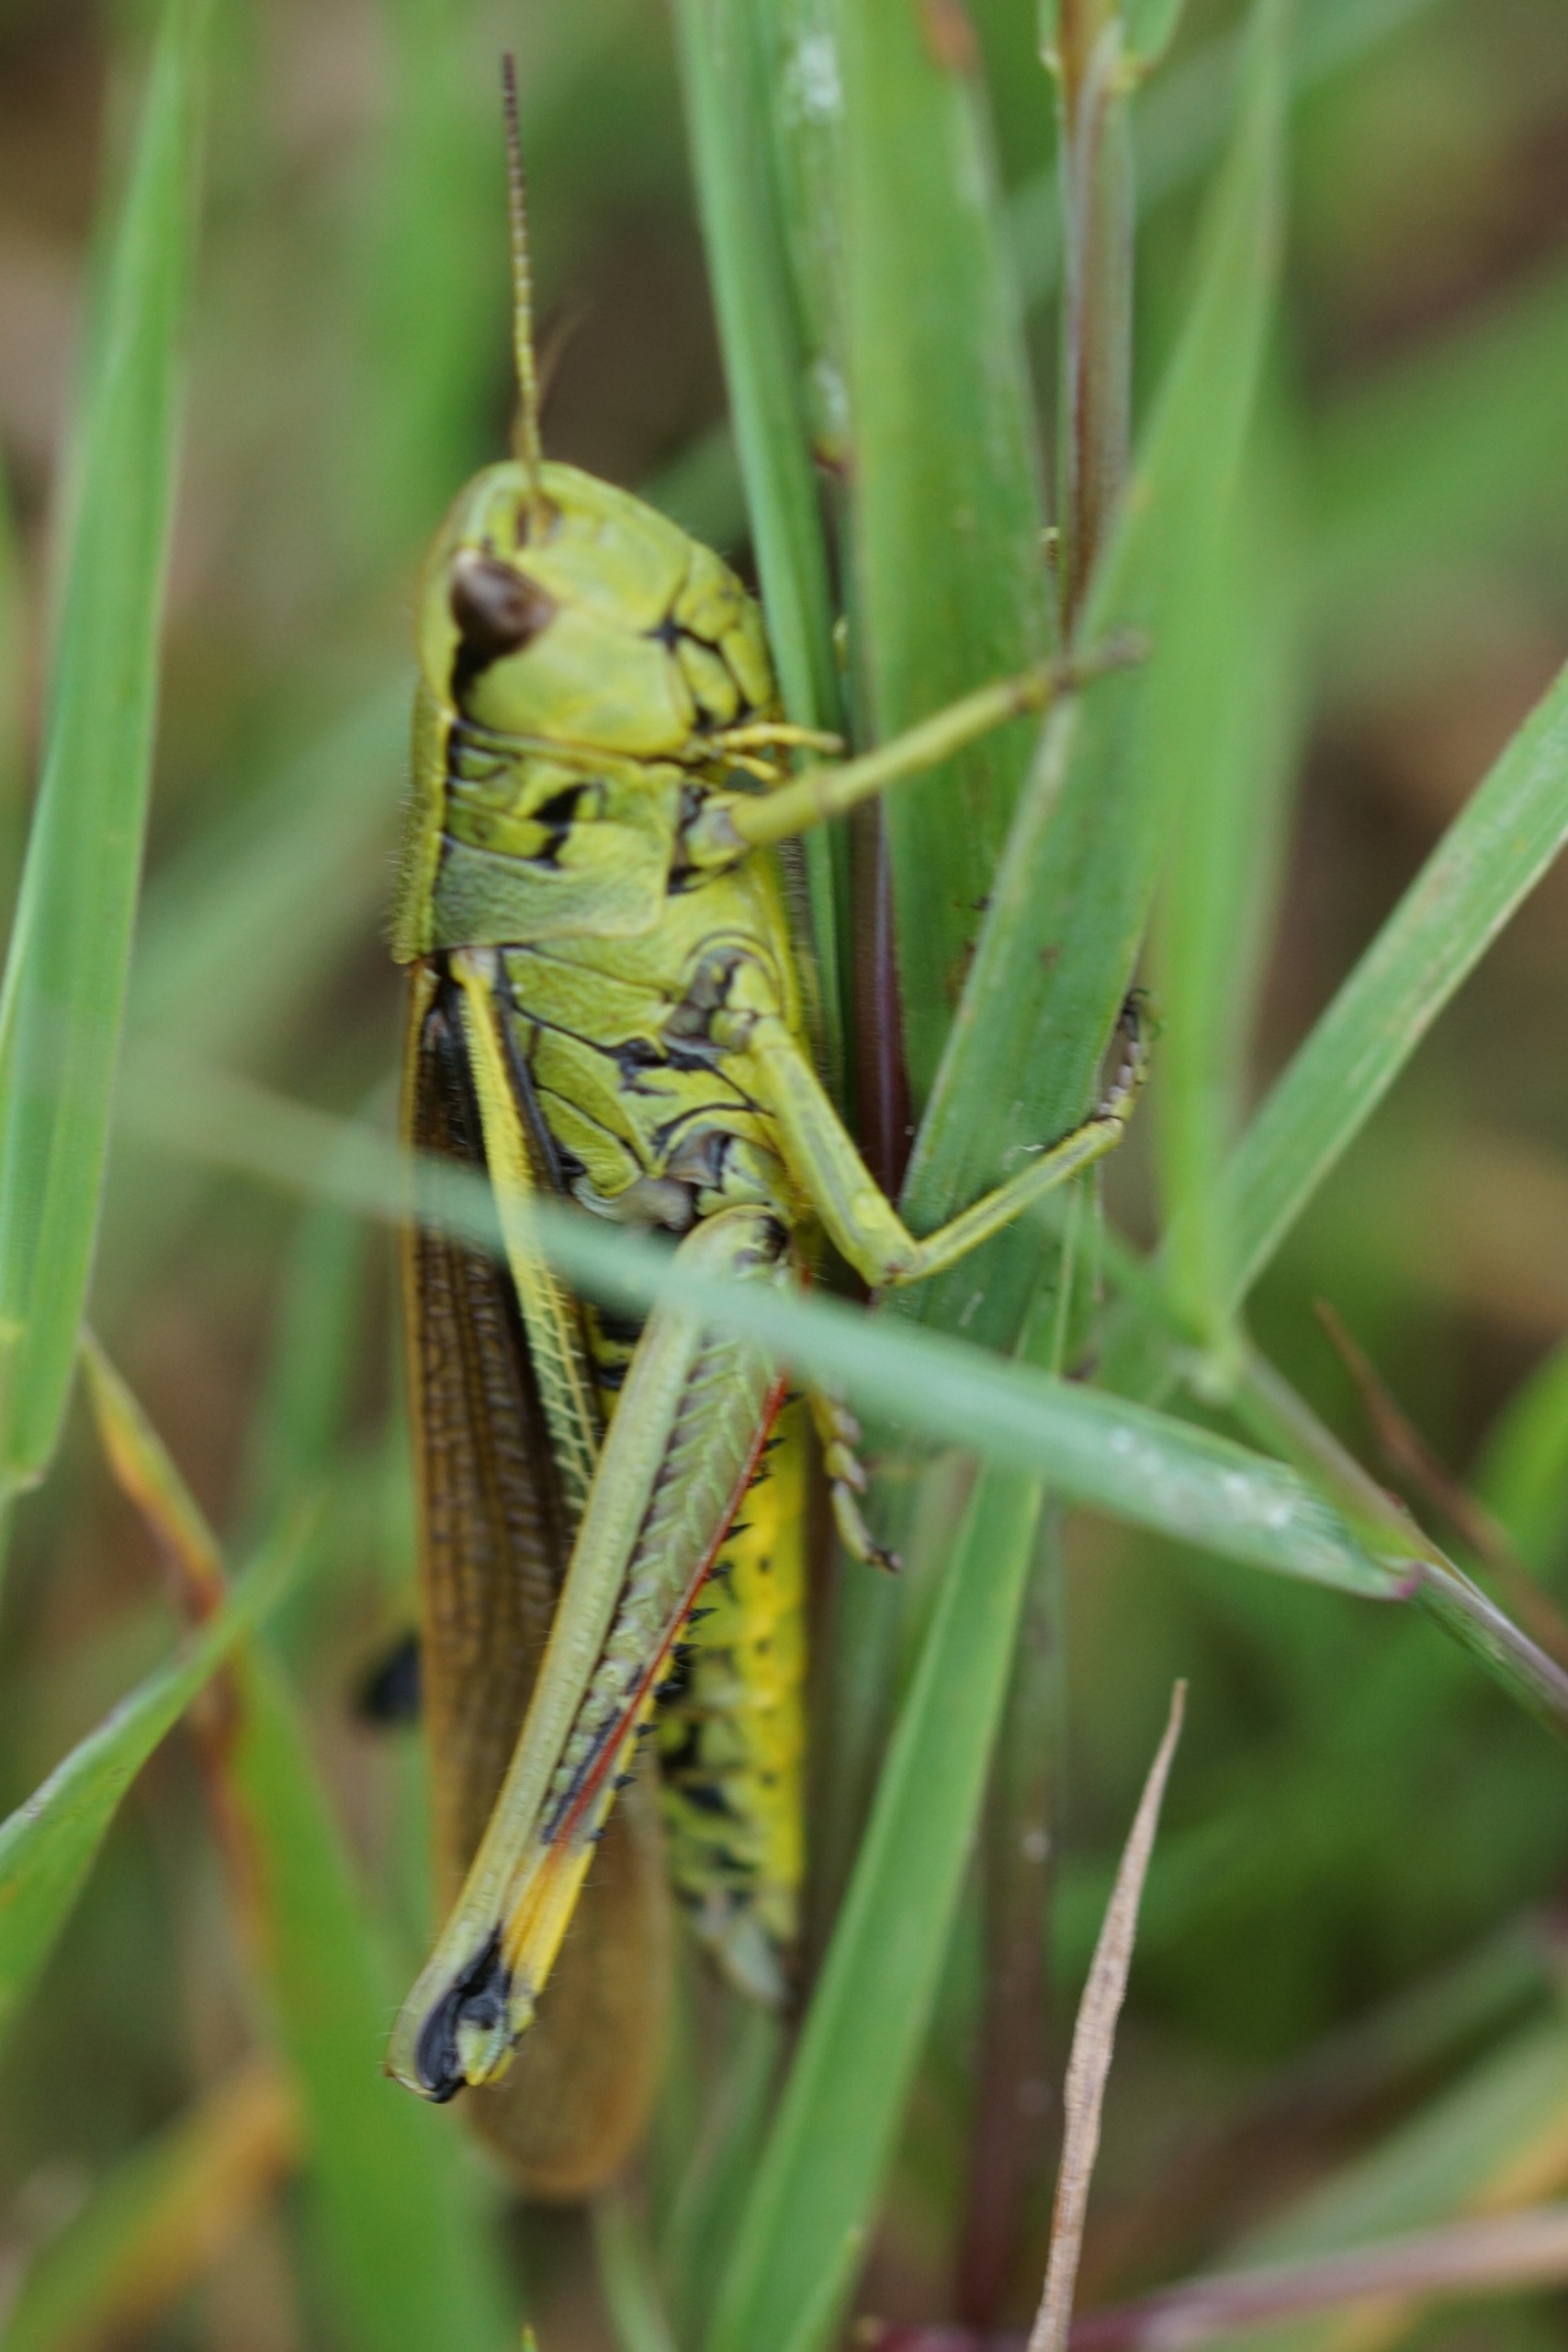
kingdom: Animalia
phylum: Arthropoda
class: Insecta
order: Orthoptera
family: Acrididae
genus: Stethophyma
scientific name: Stethophyma grossum
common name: Sumpgræshoppe
